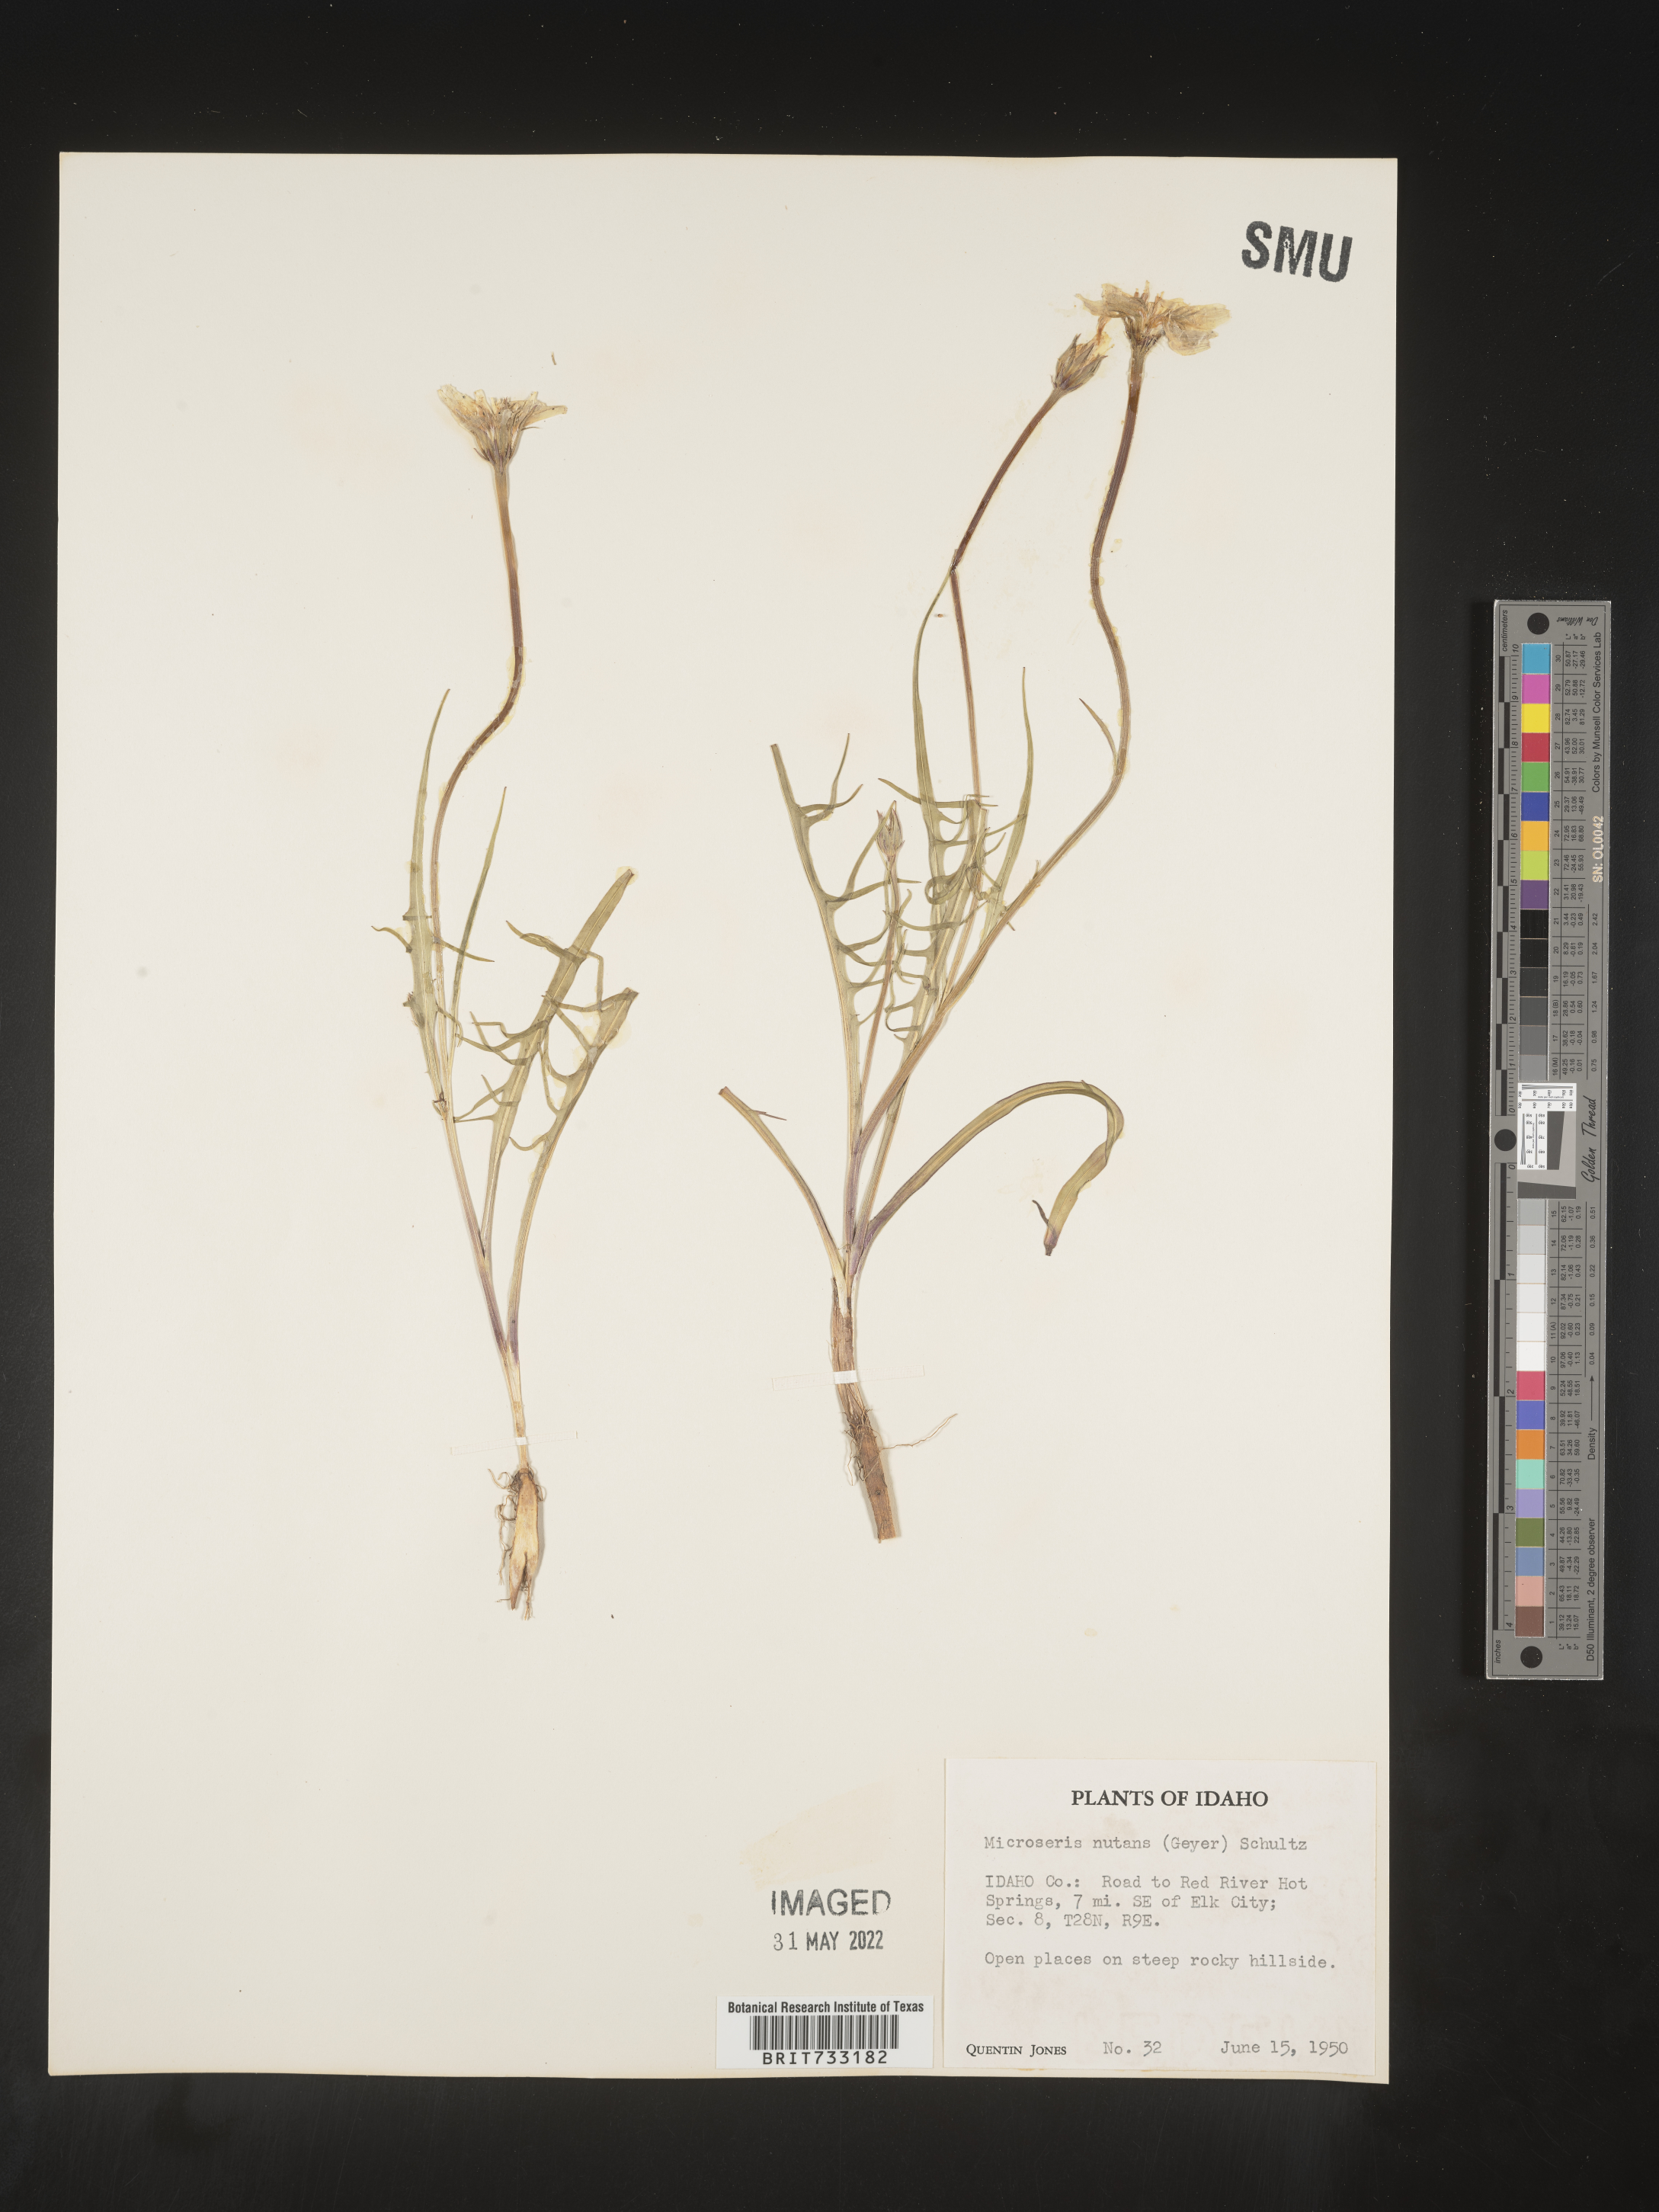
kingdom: Plantae
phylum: Tracheophyta
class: Magnoliopsida
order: Asterales
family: Asteraceae
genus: Microseris
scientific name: Microseris nutans
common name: Nodding microseris
